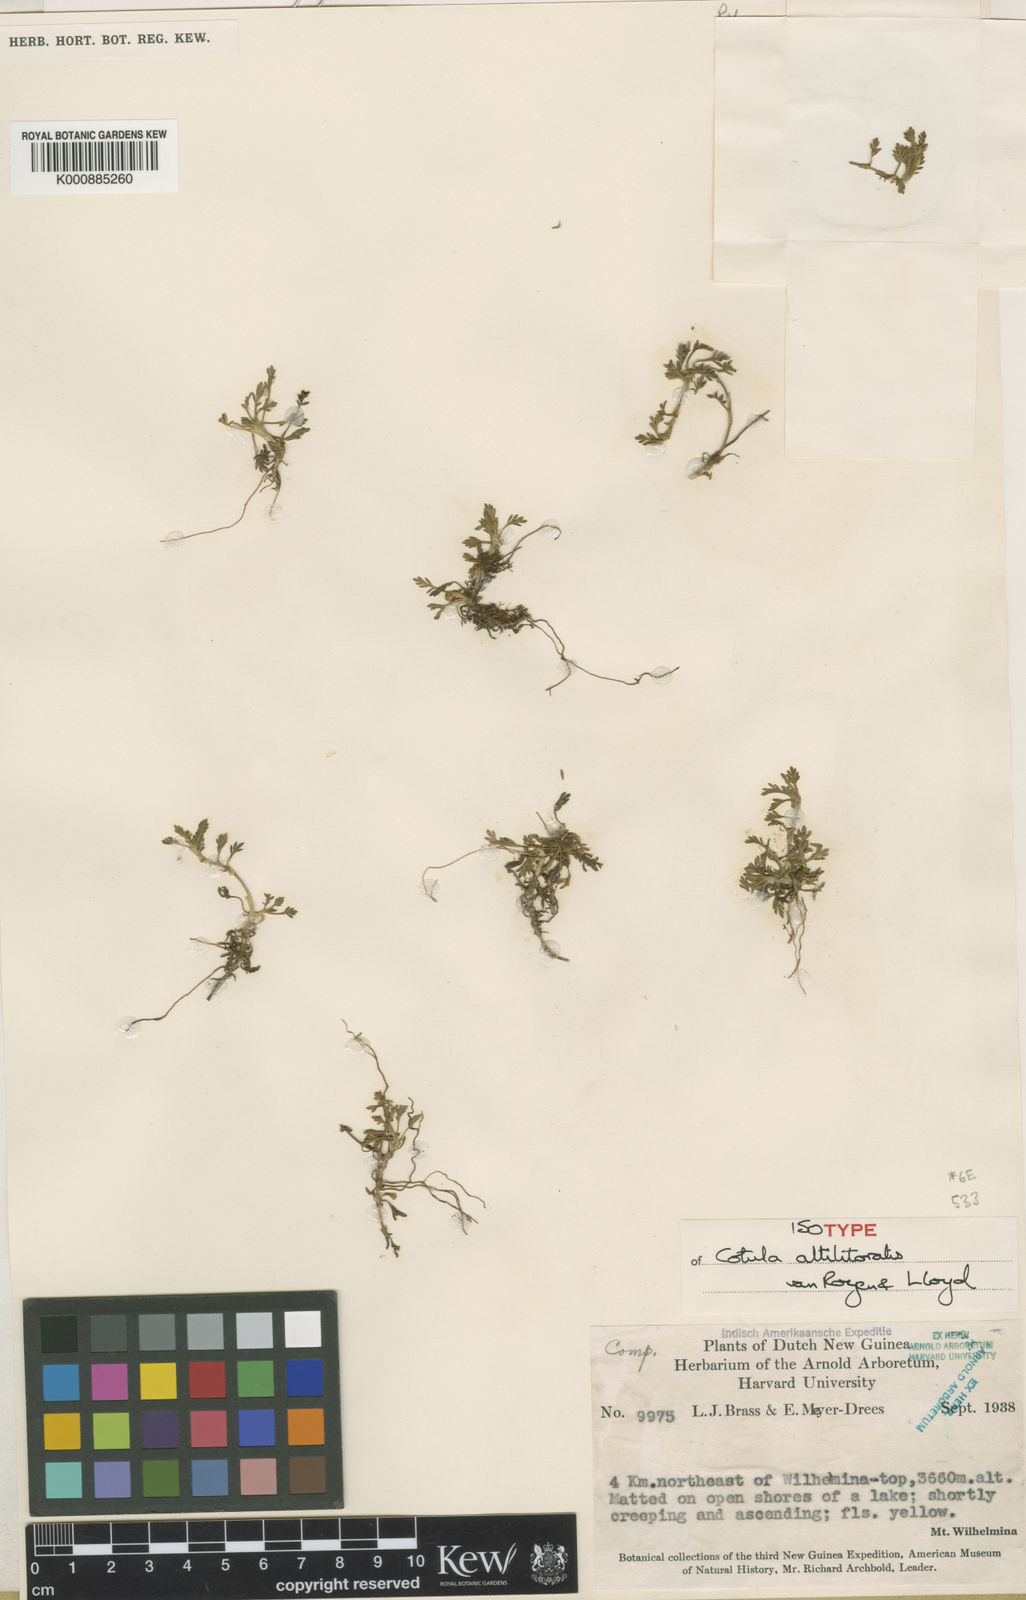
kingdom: Plantae
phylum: Tracheophyta
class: Magnoliopsida
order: Asterales
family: Asteraceae
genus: Leptinella
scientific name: Leptinella
